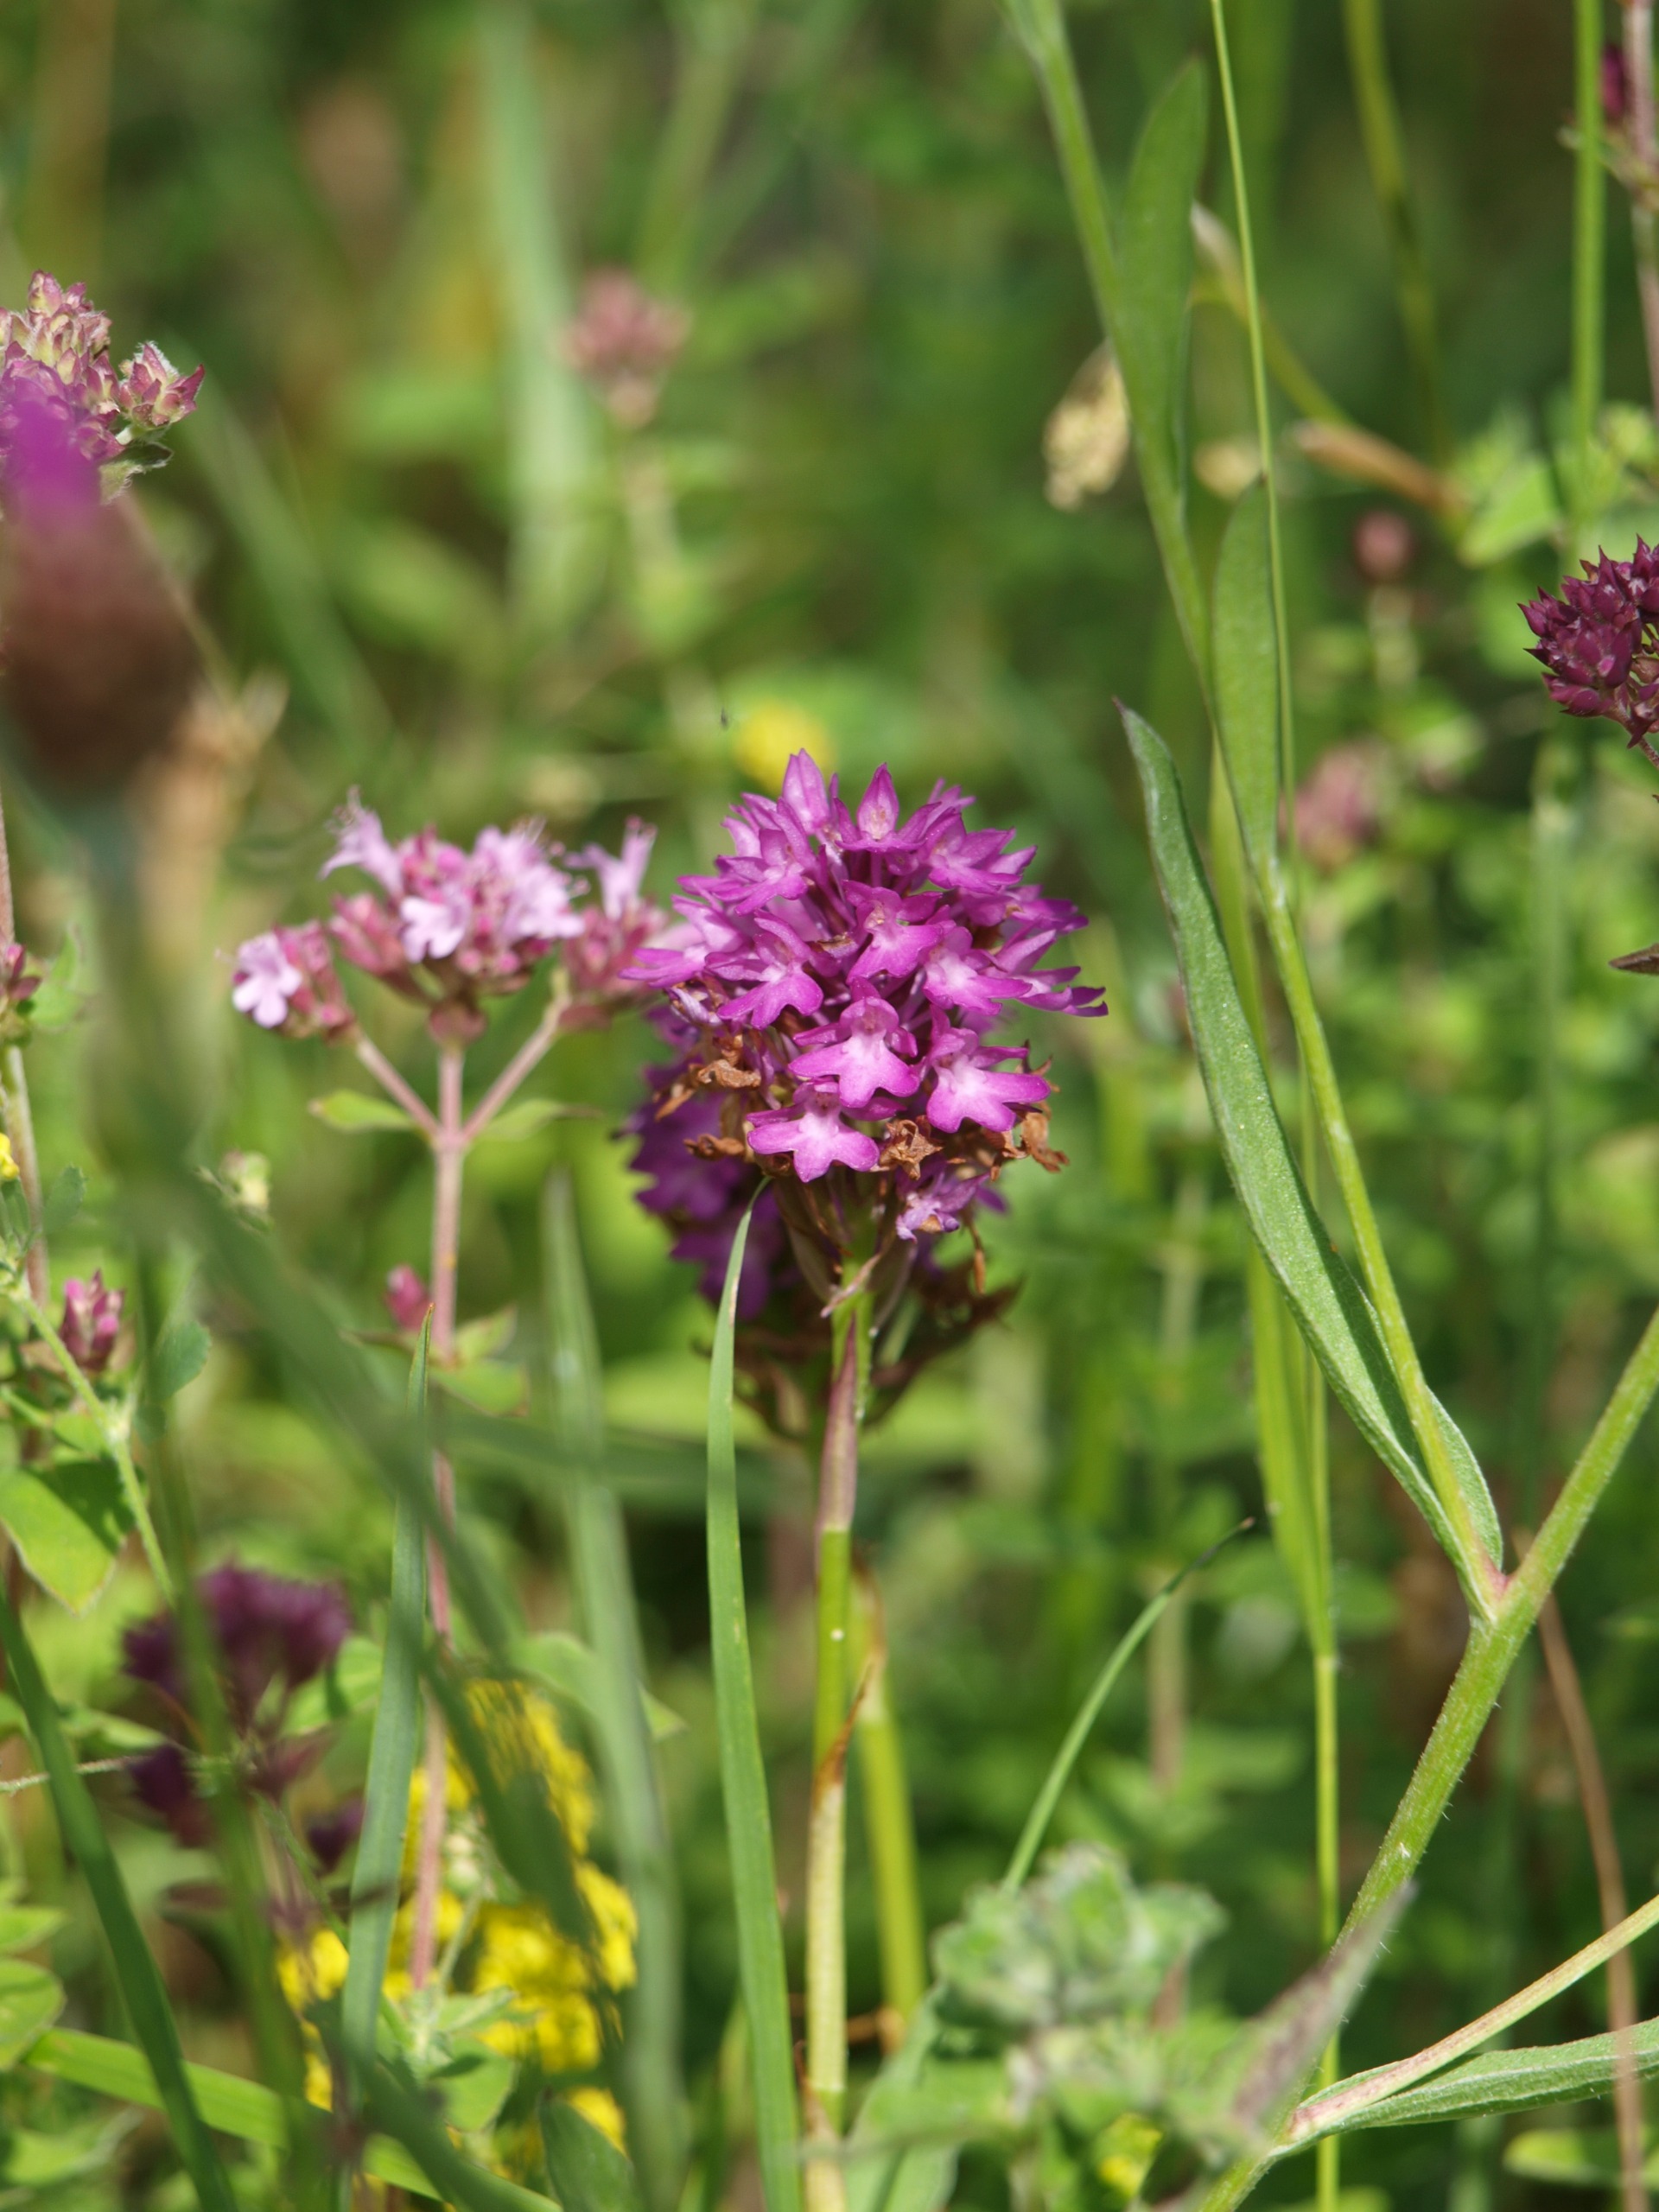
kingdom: Plantae
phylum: Tracheophyta
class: Liliopsida
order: Asparagales
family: Orchidaceae
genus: Anacamptis
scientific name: Anacamptis pyramidalis
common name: Horndrager
